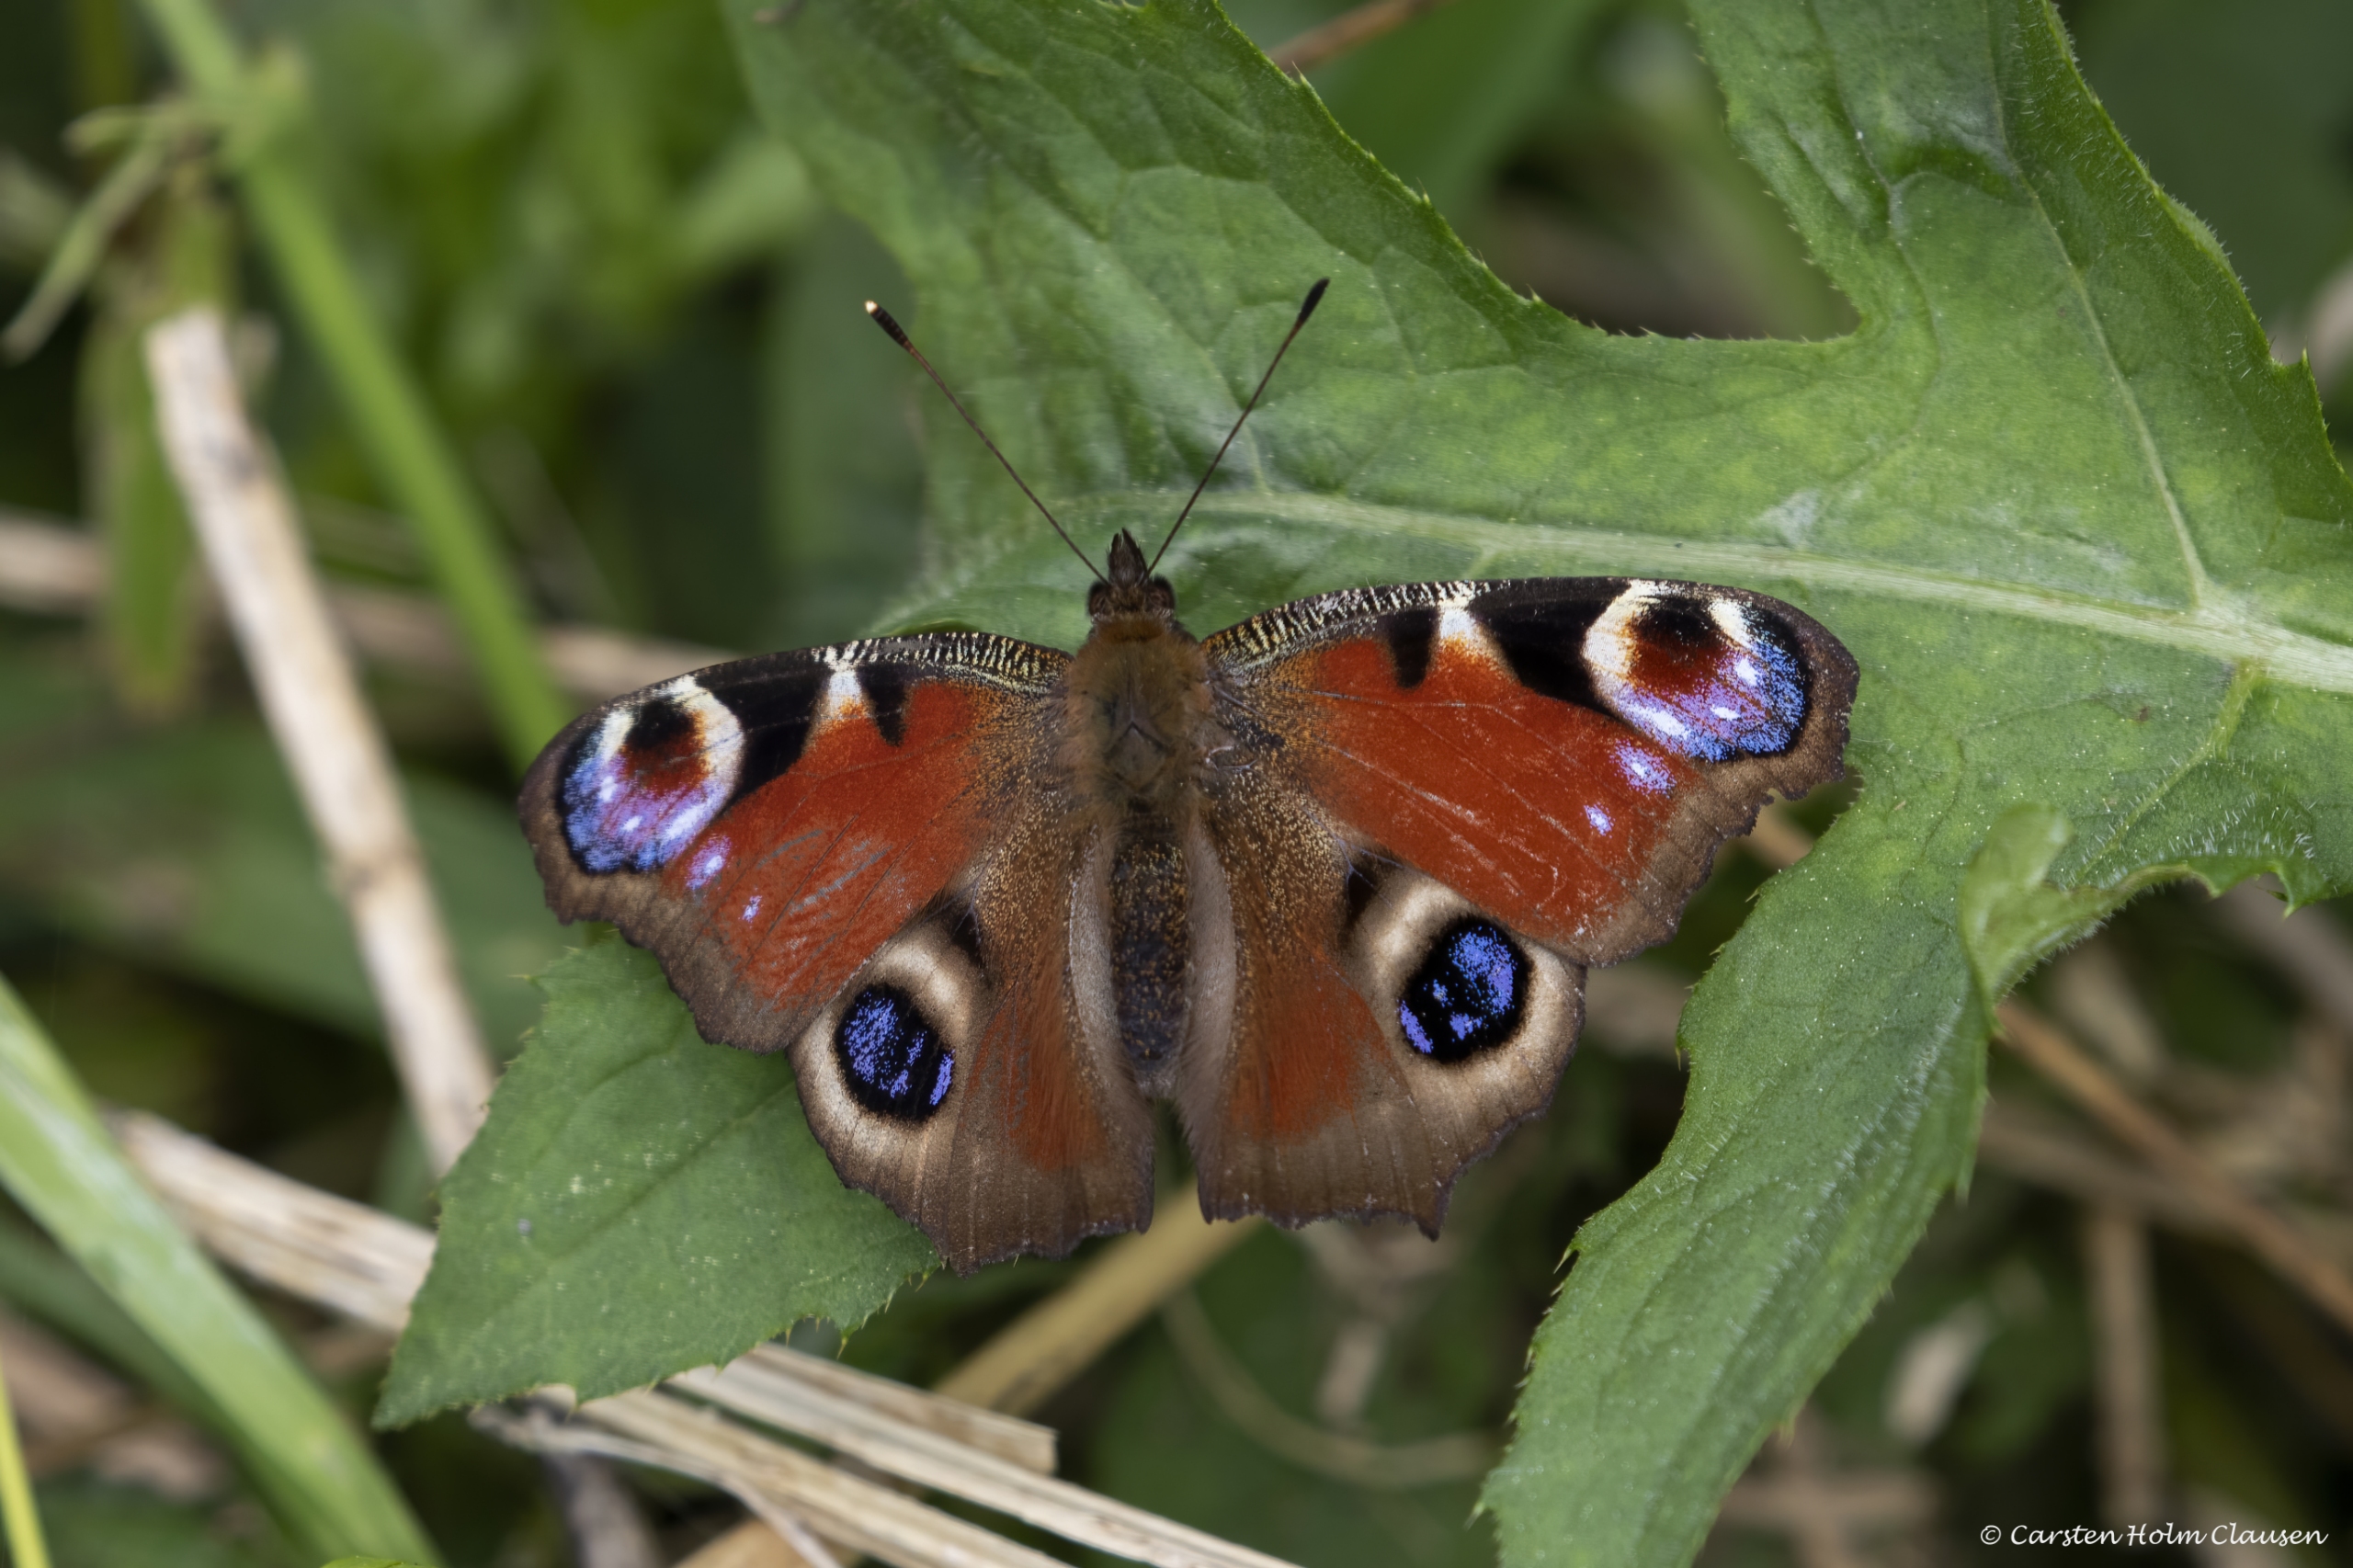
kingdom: Animalia
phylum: Arthropoda
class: Insecta
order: Lepidoptera
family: Nymphalidae
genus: Aglais
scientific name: Aglais io
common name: Dagpåfugleøje
